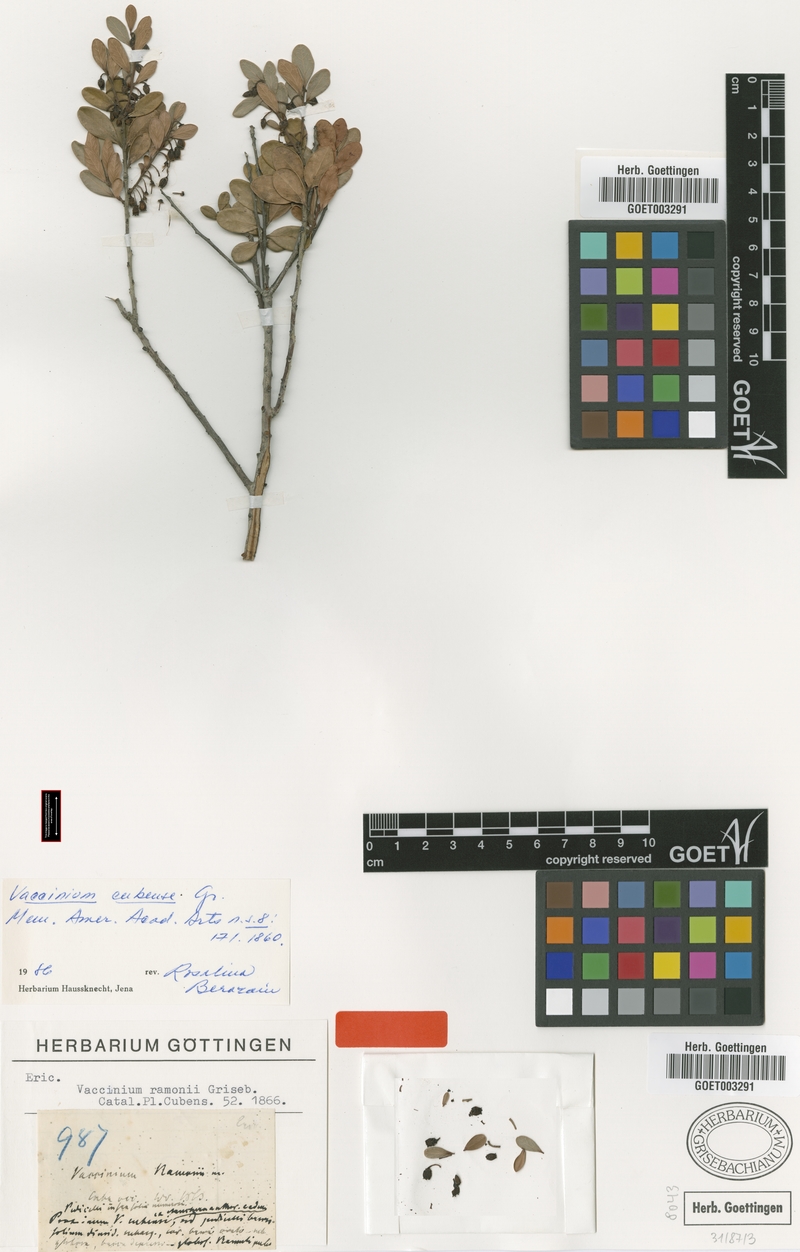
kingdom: Plantae
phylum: Tracheophyta
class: Magnoliopsida
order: Ericales
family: Ericaceae
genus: Vaccinium
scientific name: Vaccinium cubense
